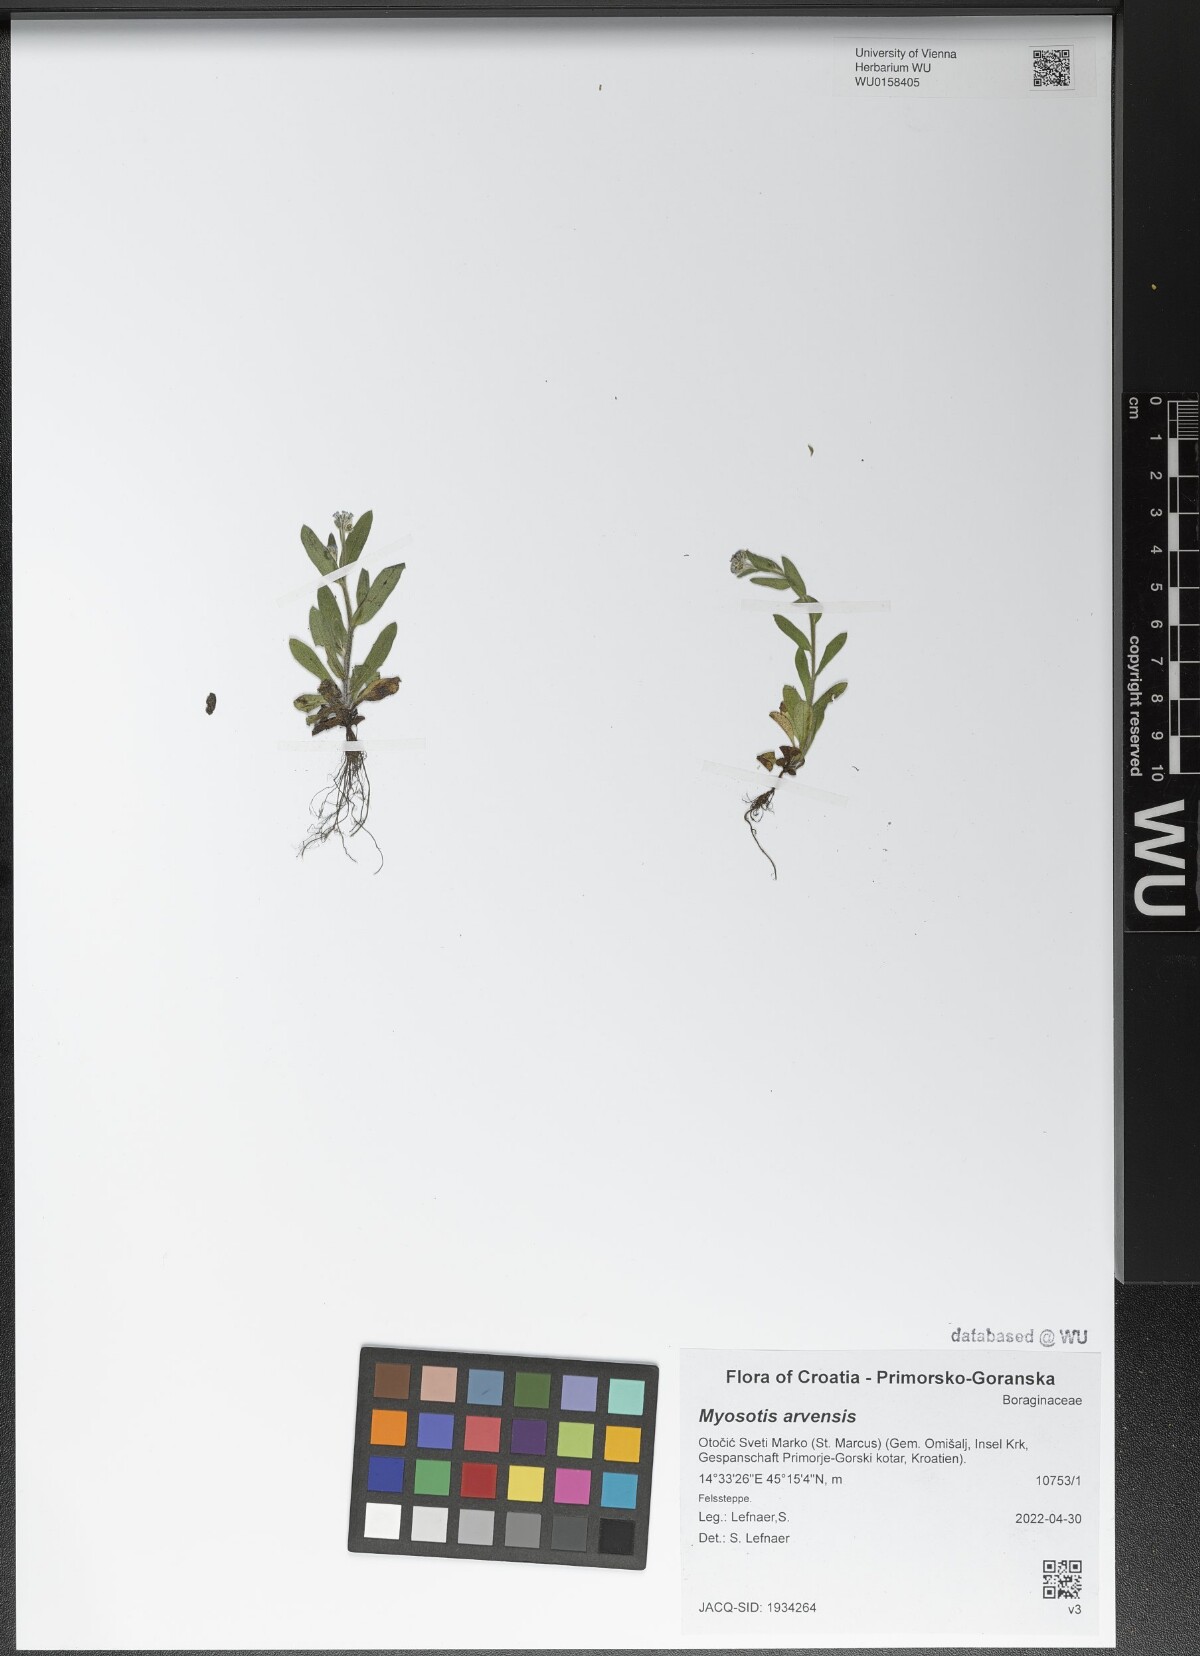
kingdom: Plantae
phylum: Tracheophyta
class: Magnoliopsida
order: Boraginales
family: Boraginaceae
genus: Myosotis
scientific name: Myosotis arvensis
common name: Field forget-me-not
